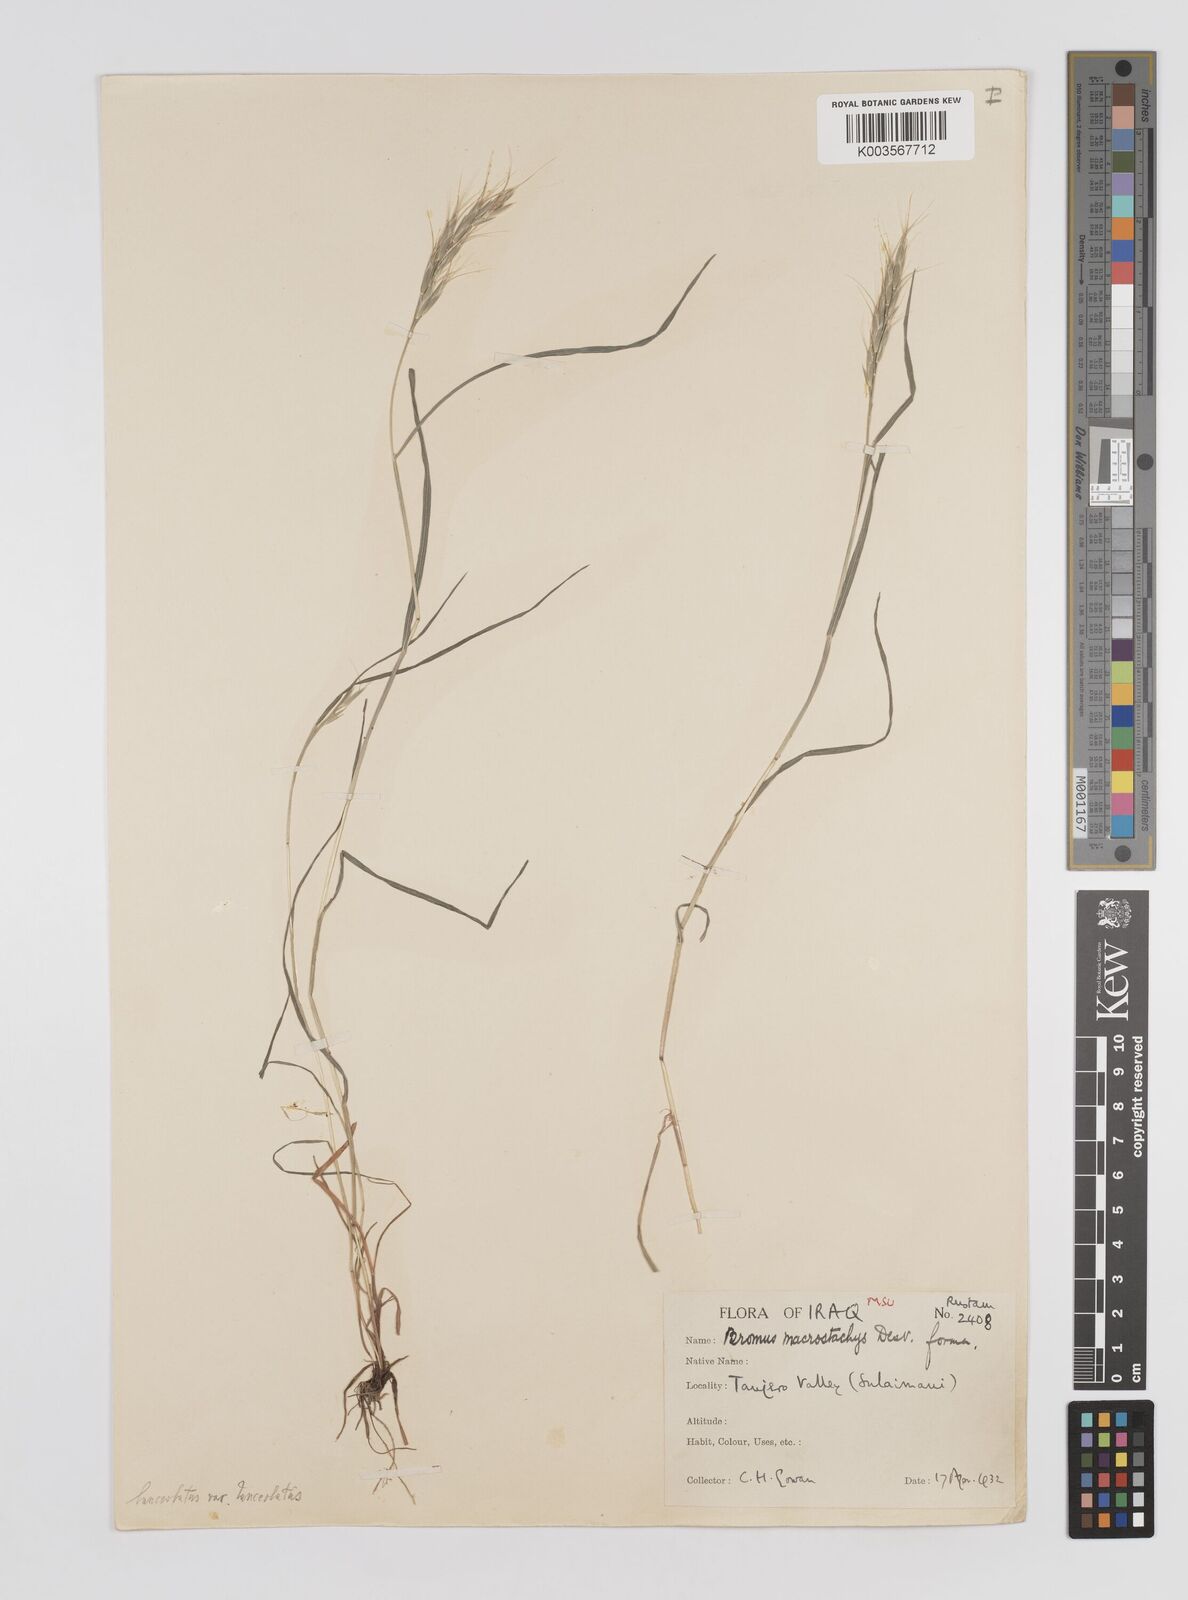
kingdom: Plantae
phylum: Tracheophyta
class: Liliopsida
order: Poales
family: Poaceae
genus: Bromus
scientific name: Bromus
